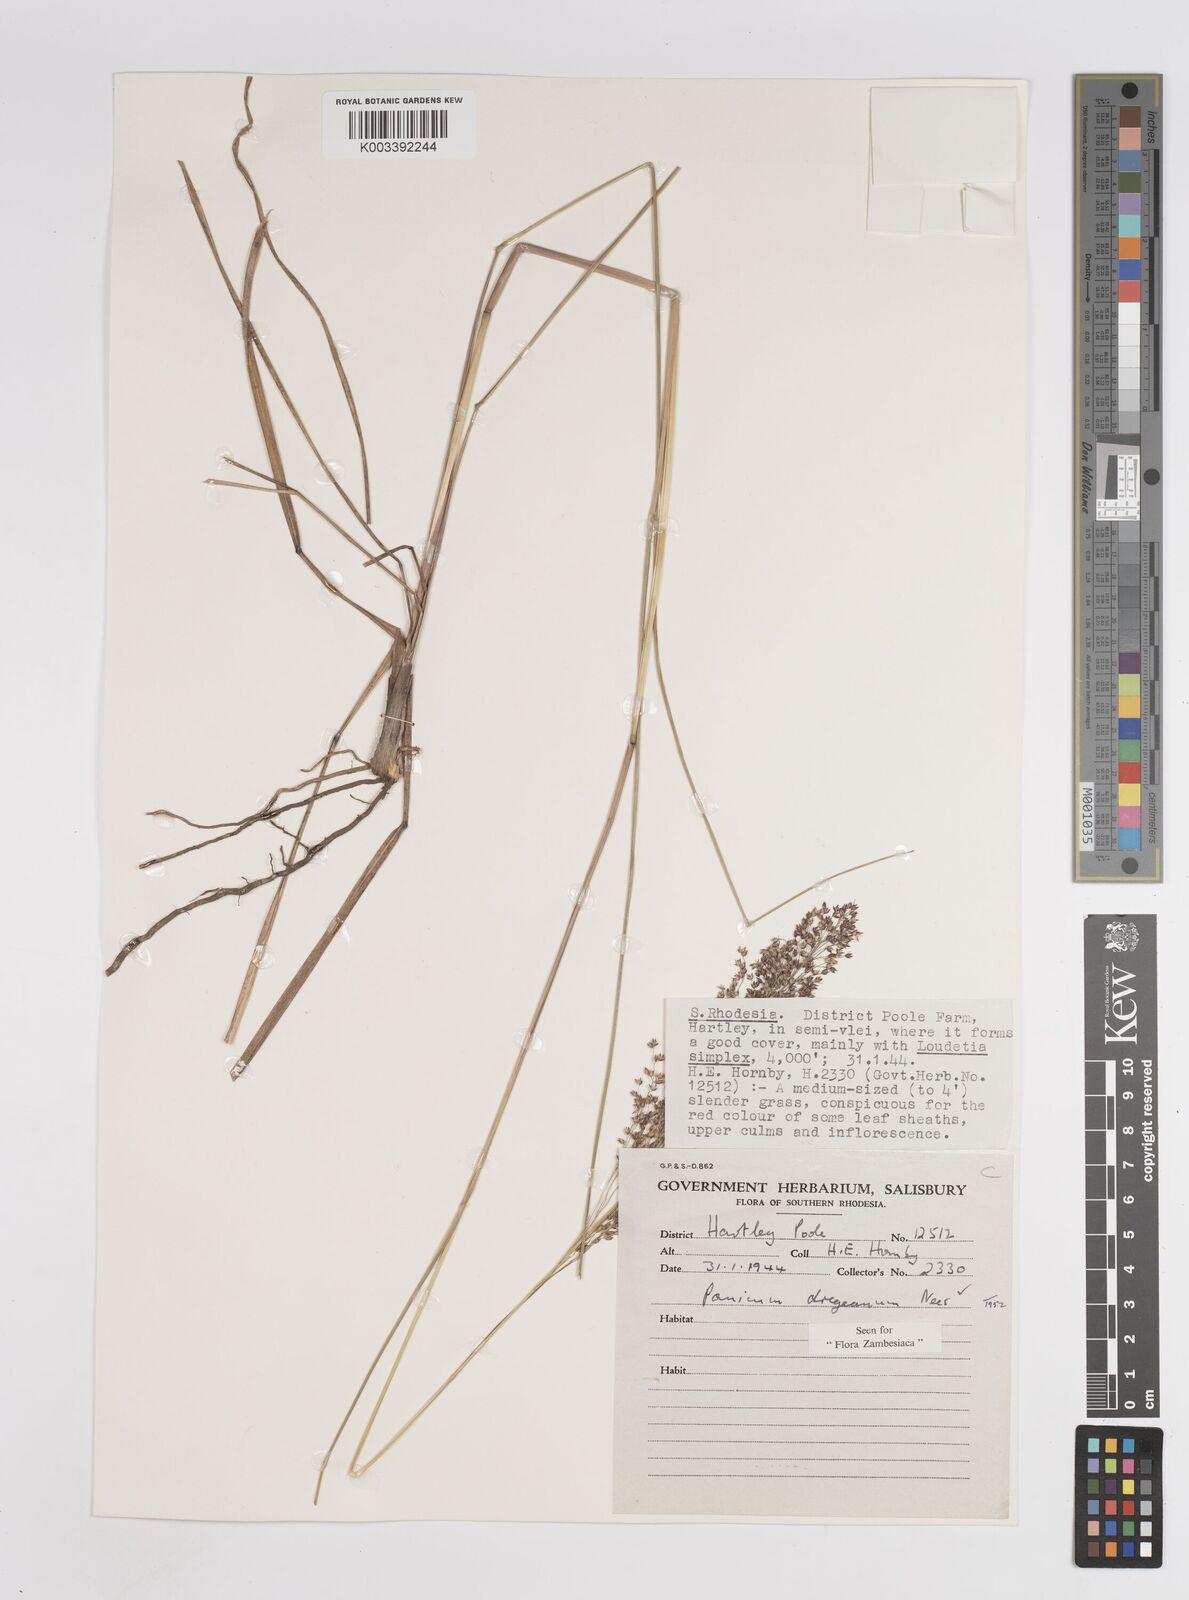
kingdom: Plantae
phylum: Tracheophyta
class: Liliopsida
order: Poales
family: Poaceae
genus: Panicum
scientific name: Panicum dregeanum
